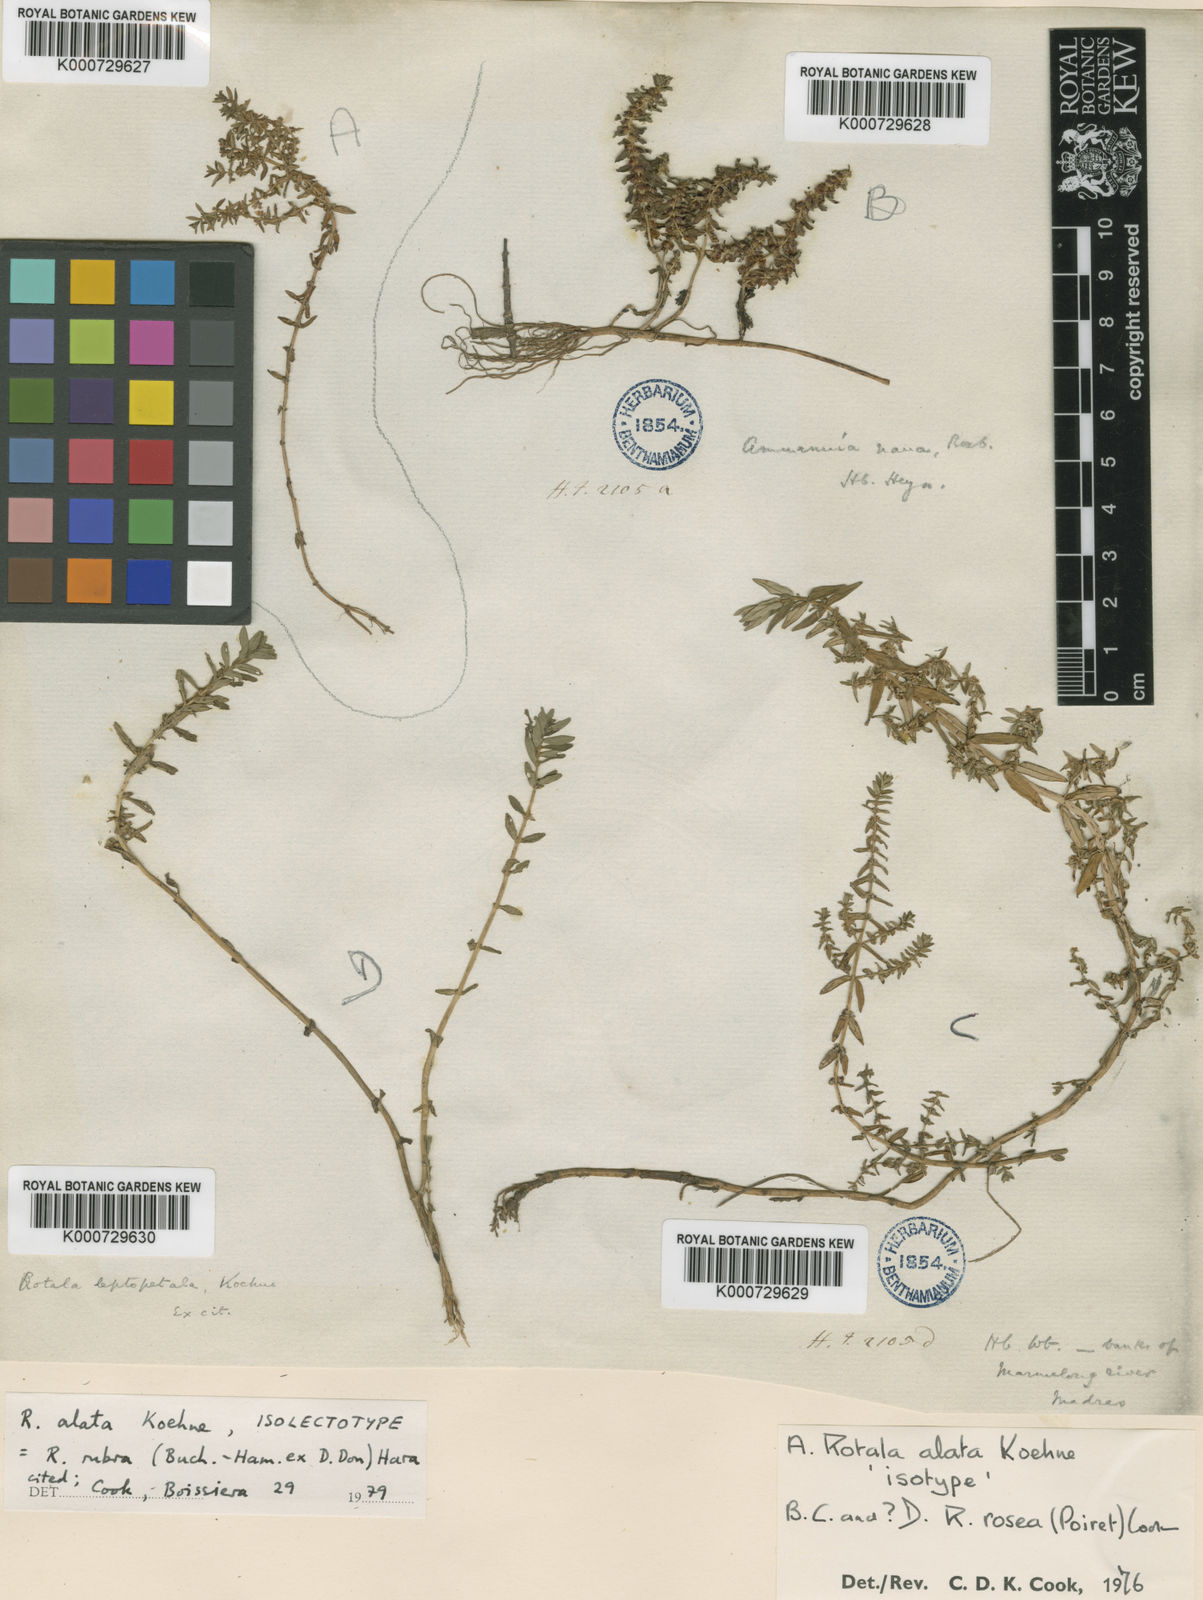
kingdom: Plantae
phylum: Tracheophyta
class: Magnoliopsida
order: Myrtales
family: Lythraceae
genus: Rotala
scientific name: Rotala rubra
